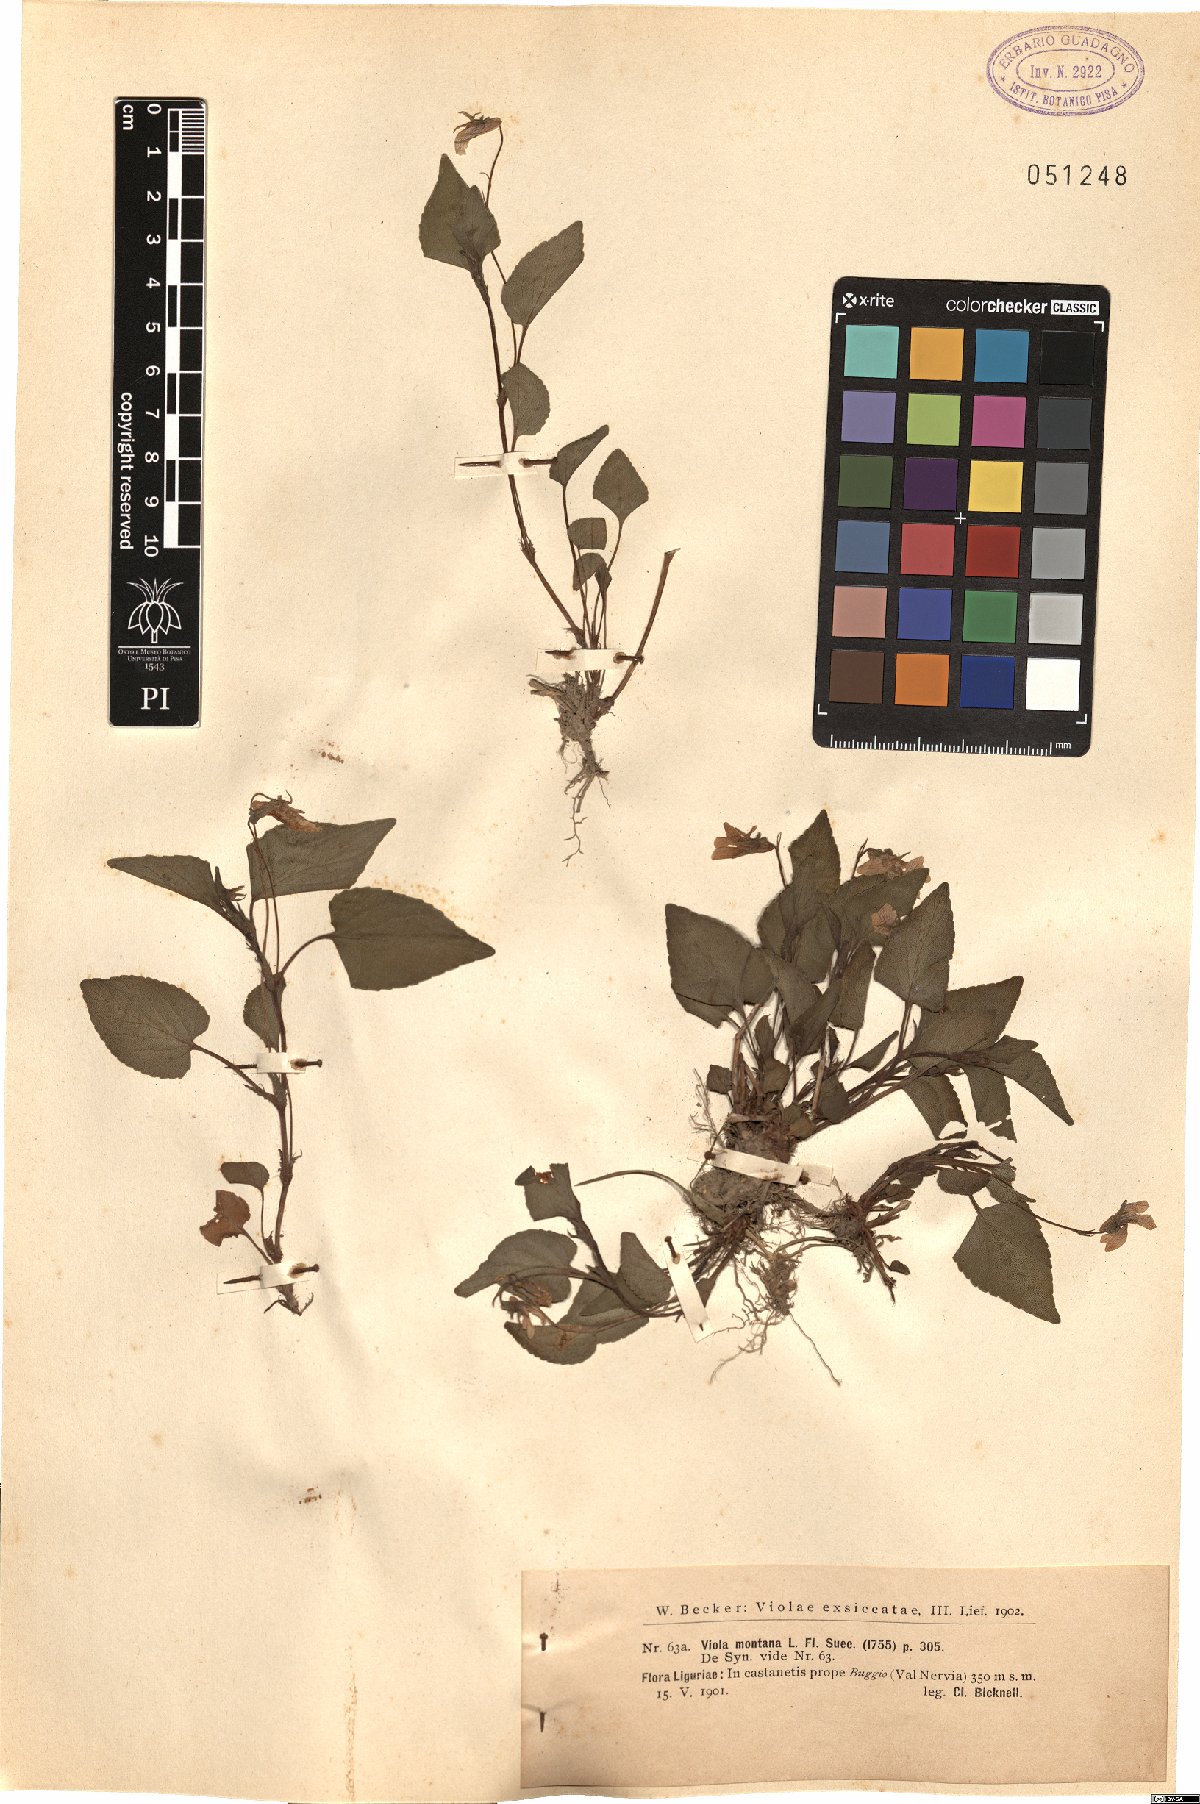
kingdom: Plantae
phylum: Tracheophyta
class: Magnoliopsida
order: Malpighiales
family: Violaceae
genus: Viola
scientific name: Viola ruppii
